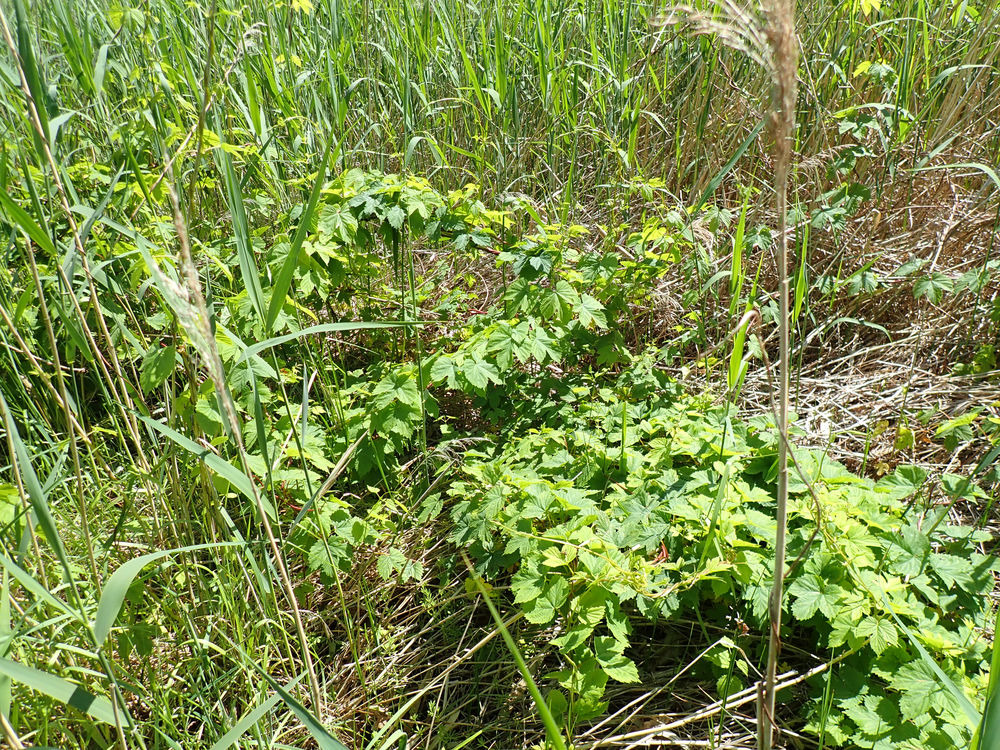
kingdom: Plantae
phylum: Tracheophyta
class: Magnoliopsida
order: Rosales
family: Cannabaceae
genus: Humulus
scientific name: Humulus lupulus
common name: Humle
